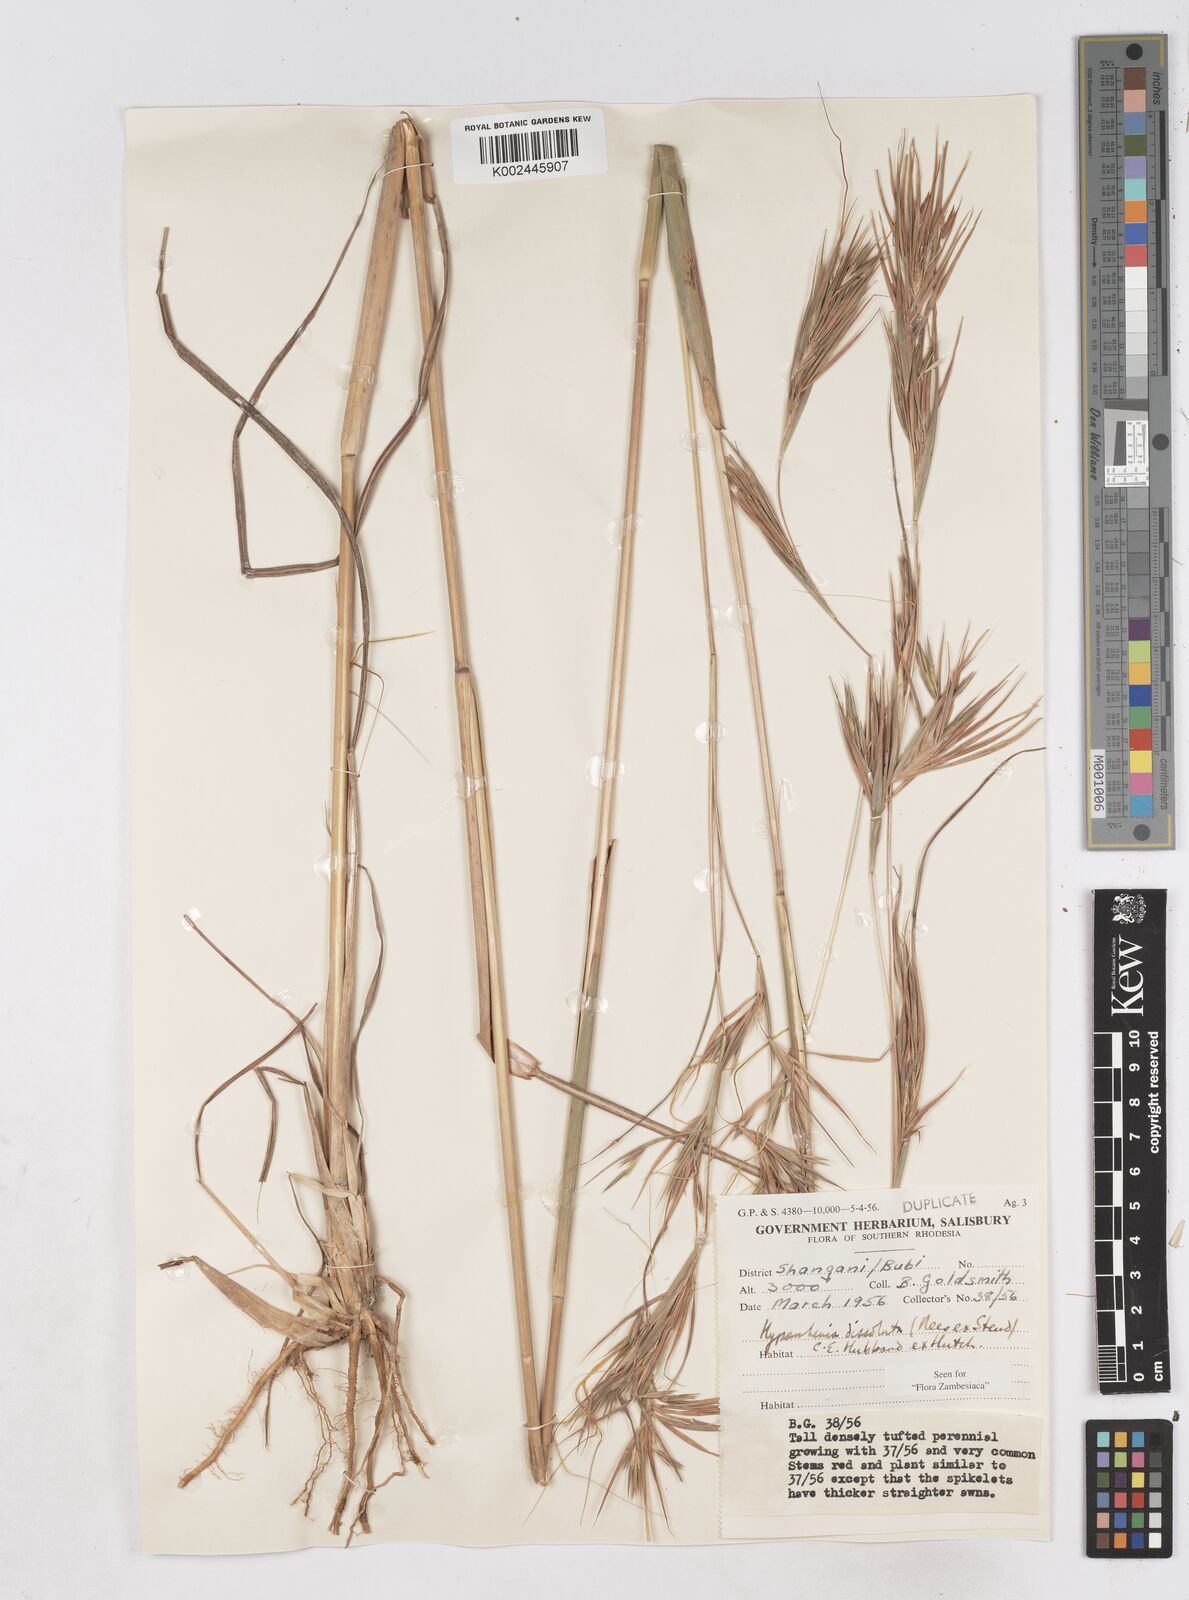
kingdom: Plantae
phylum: Tracheophyta
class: Liliopsida
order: Poales
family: Poaceae
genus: Hyperthelia
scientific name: Hyperthelia dissoluta
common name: Yellow thatching grass
